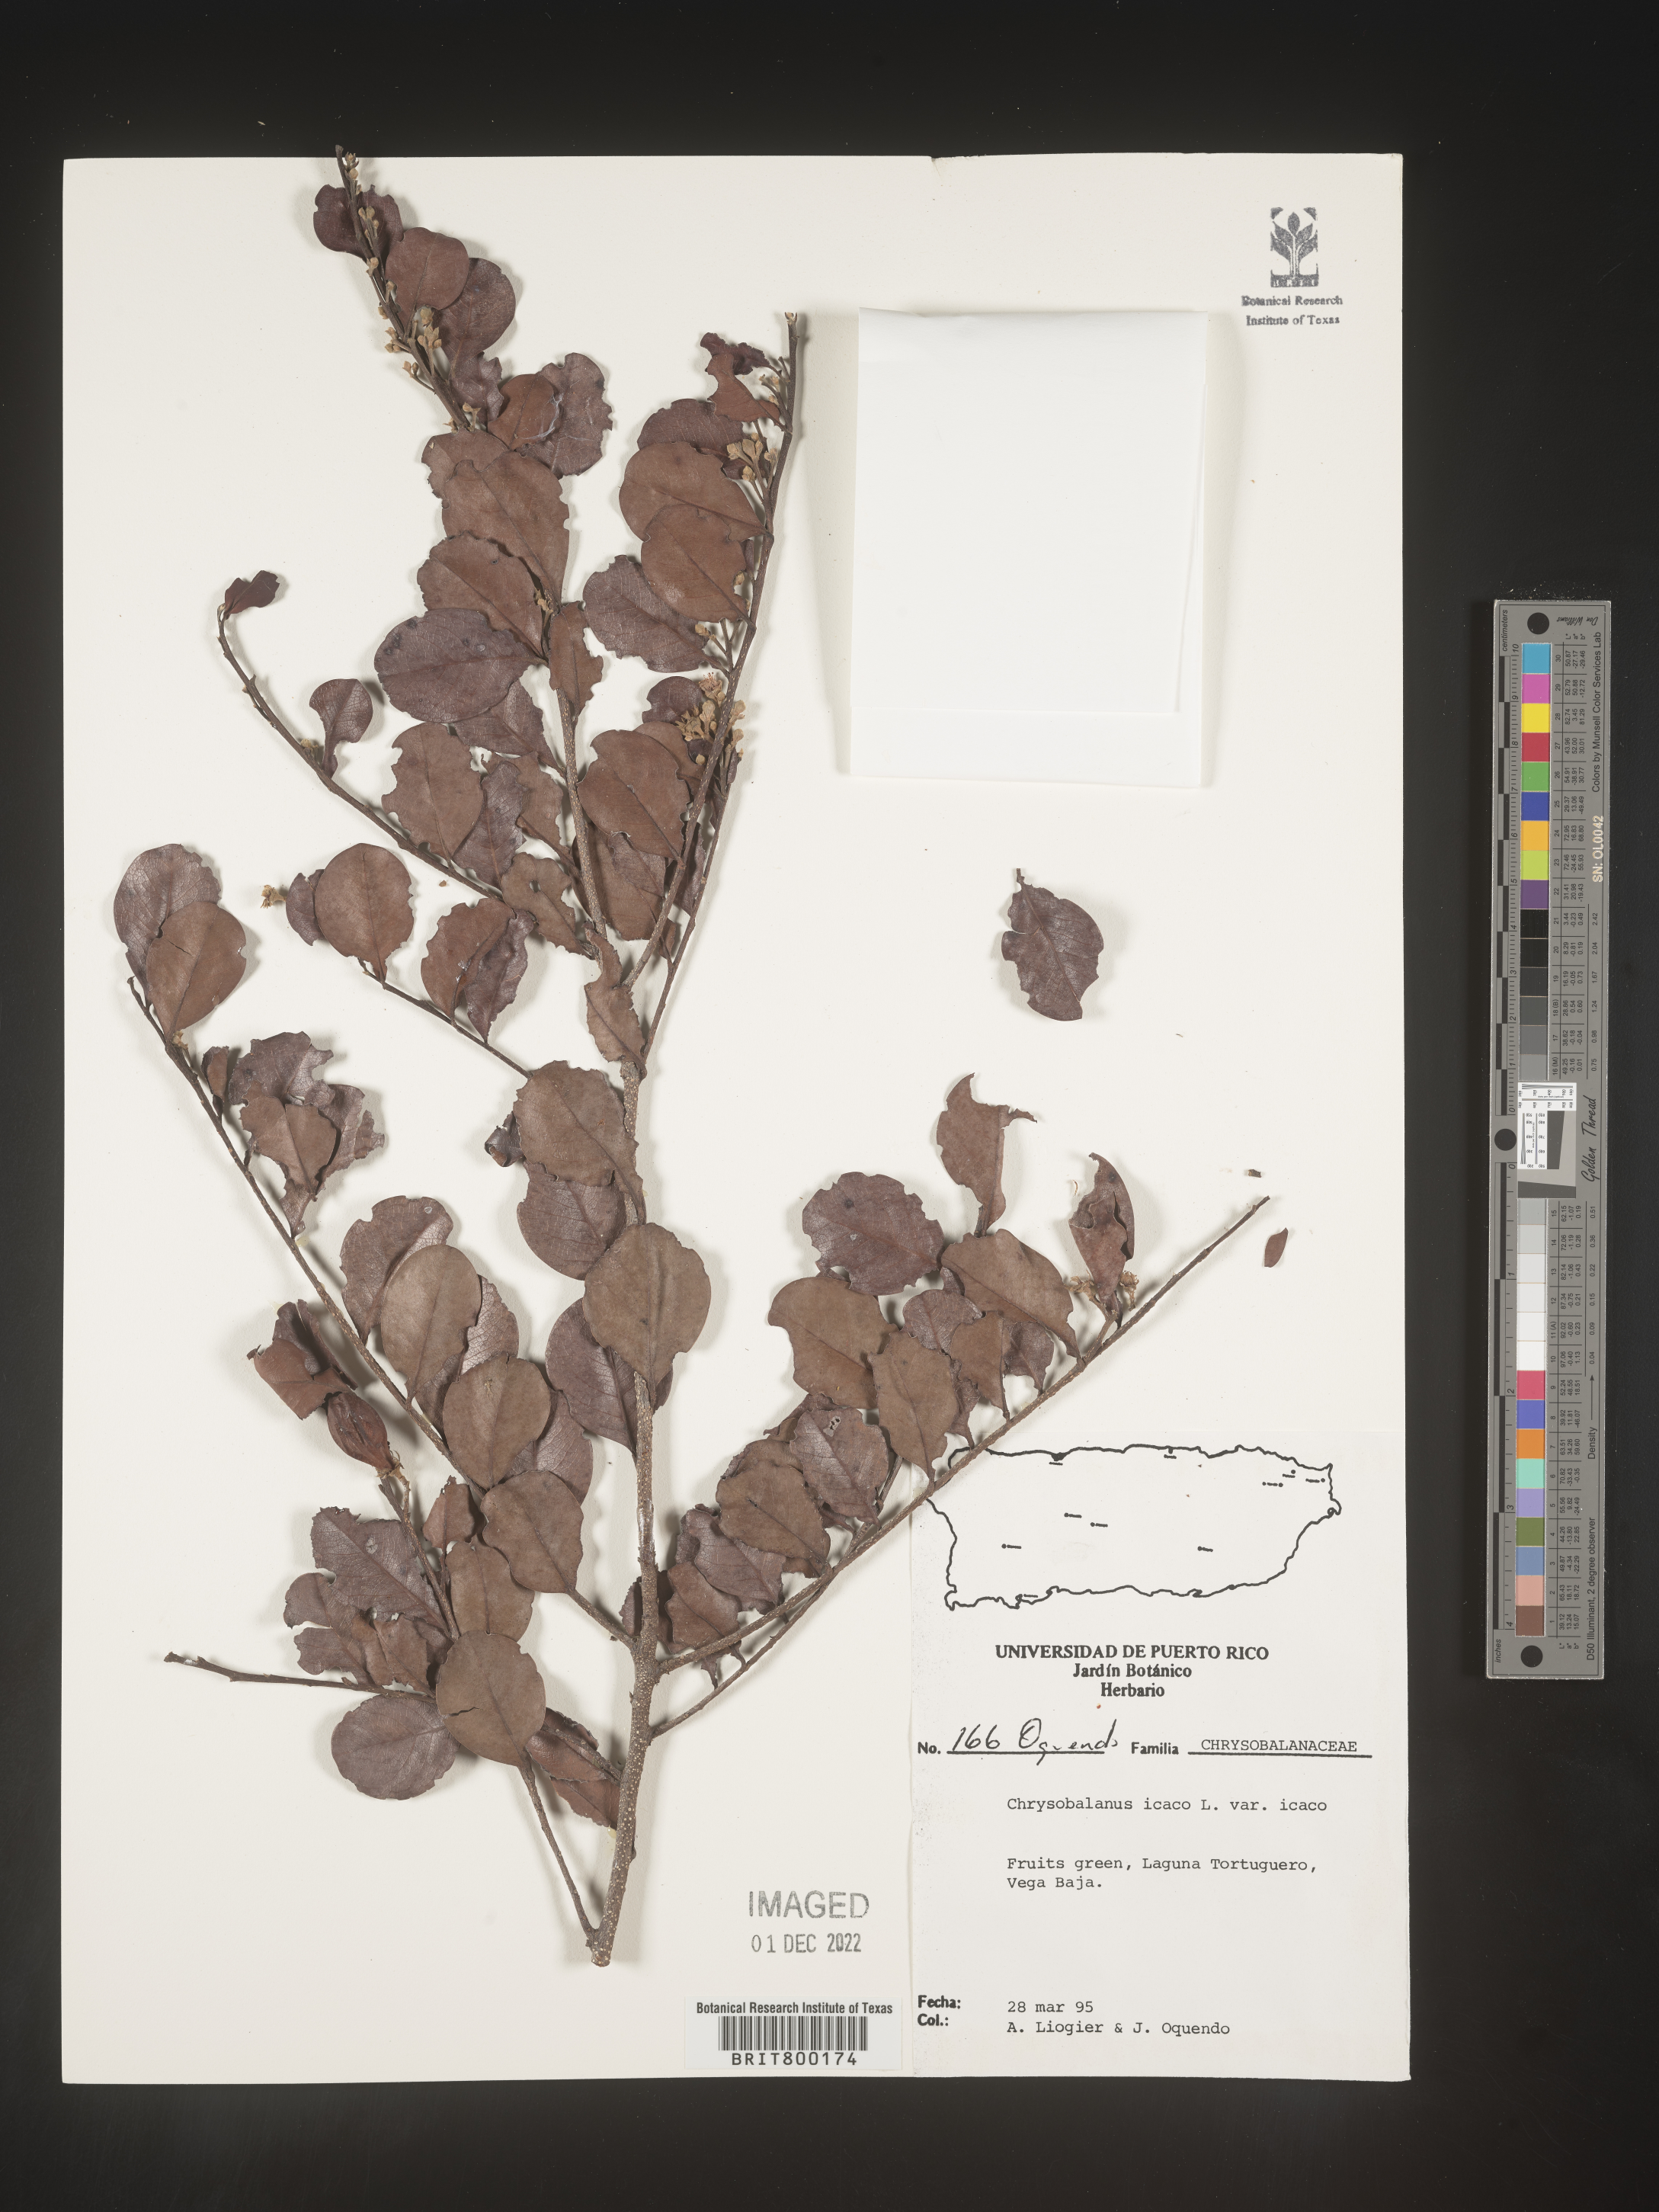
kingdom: Plantae
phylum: Tracheophyta
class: Magnoliopsida
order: Malpighiales
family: Chrysobalanaceae
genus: Chrysobalanus
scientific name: Chrysobalanus
